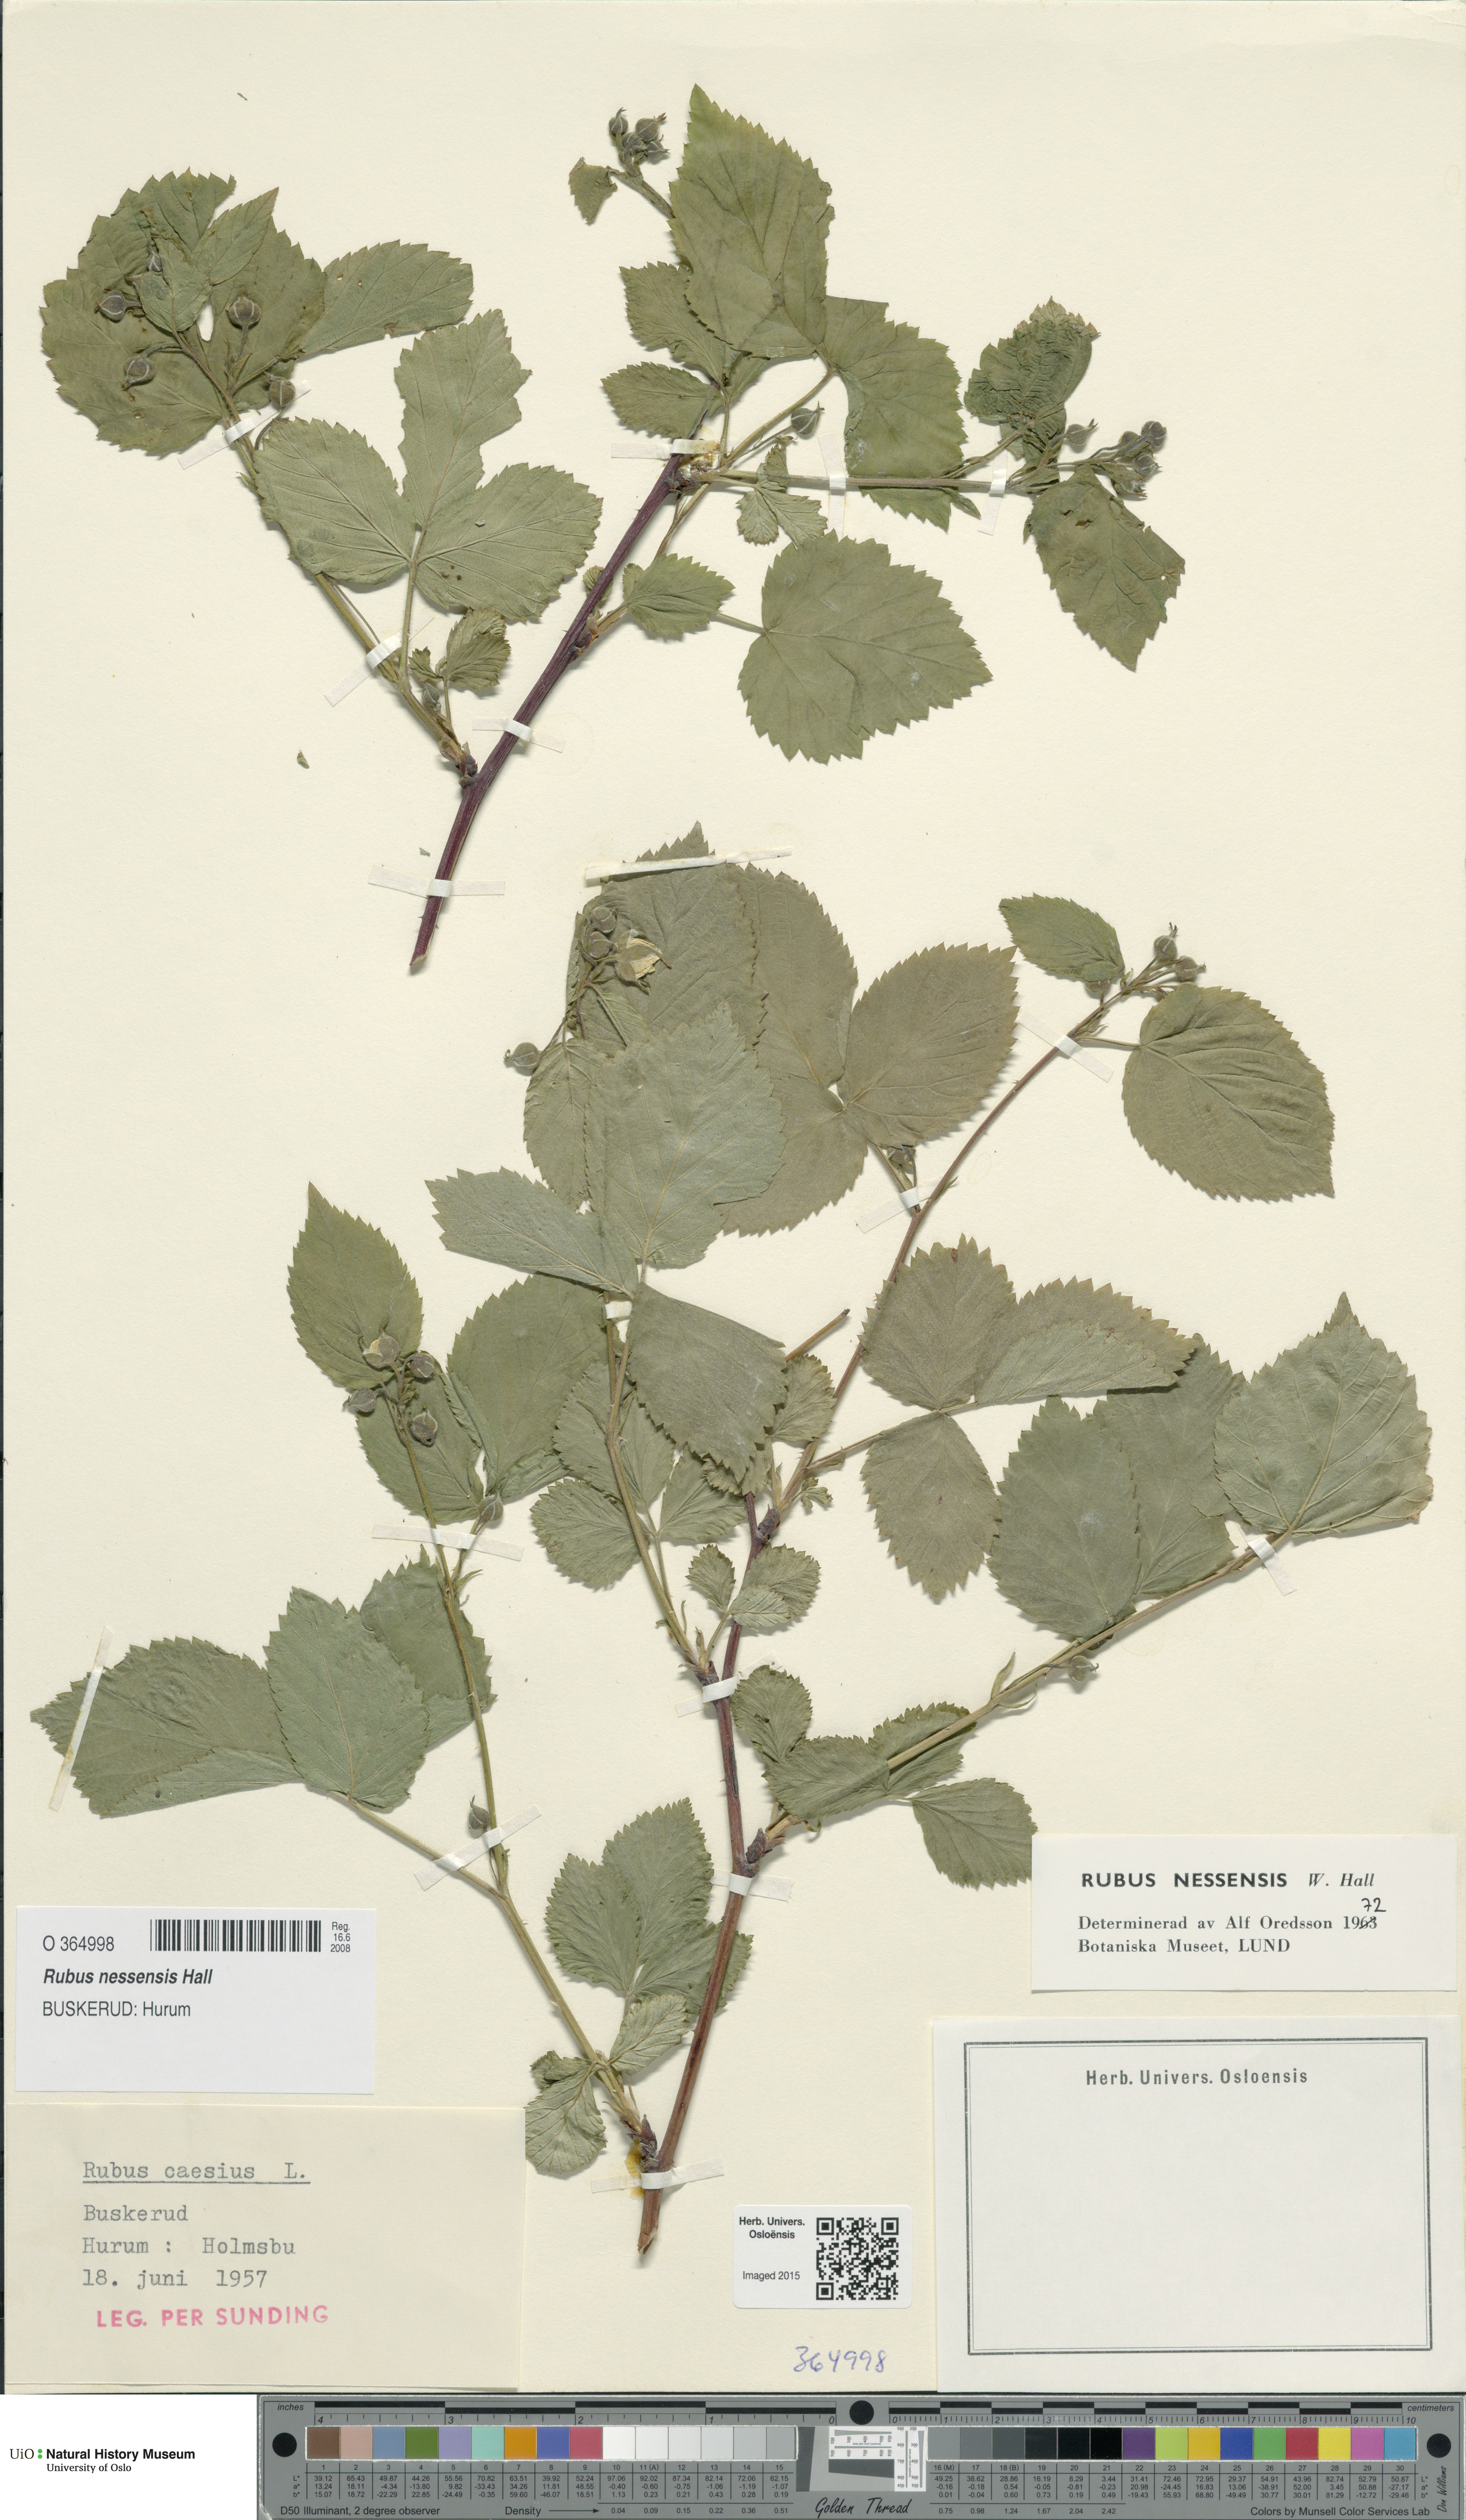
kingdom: Plantae
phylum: Tracheophyta
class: Magnoliopsida
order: Rosales
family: Rosaceae
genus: Rubus
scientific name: Rubus polonicus
